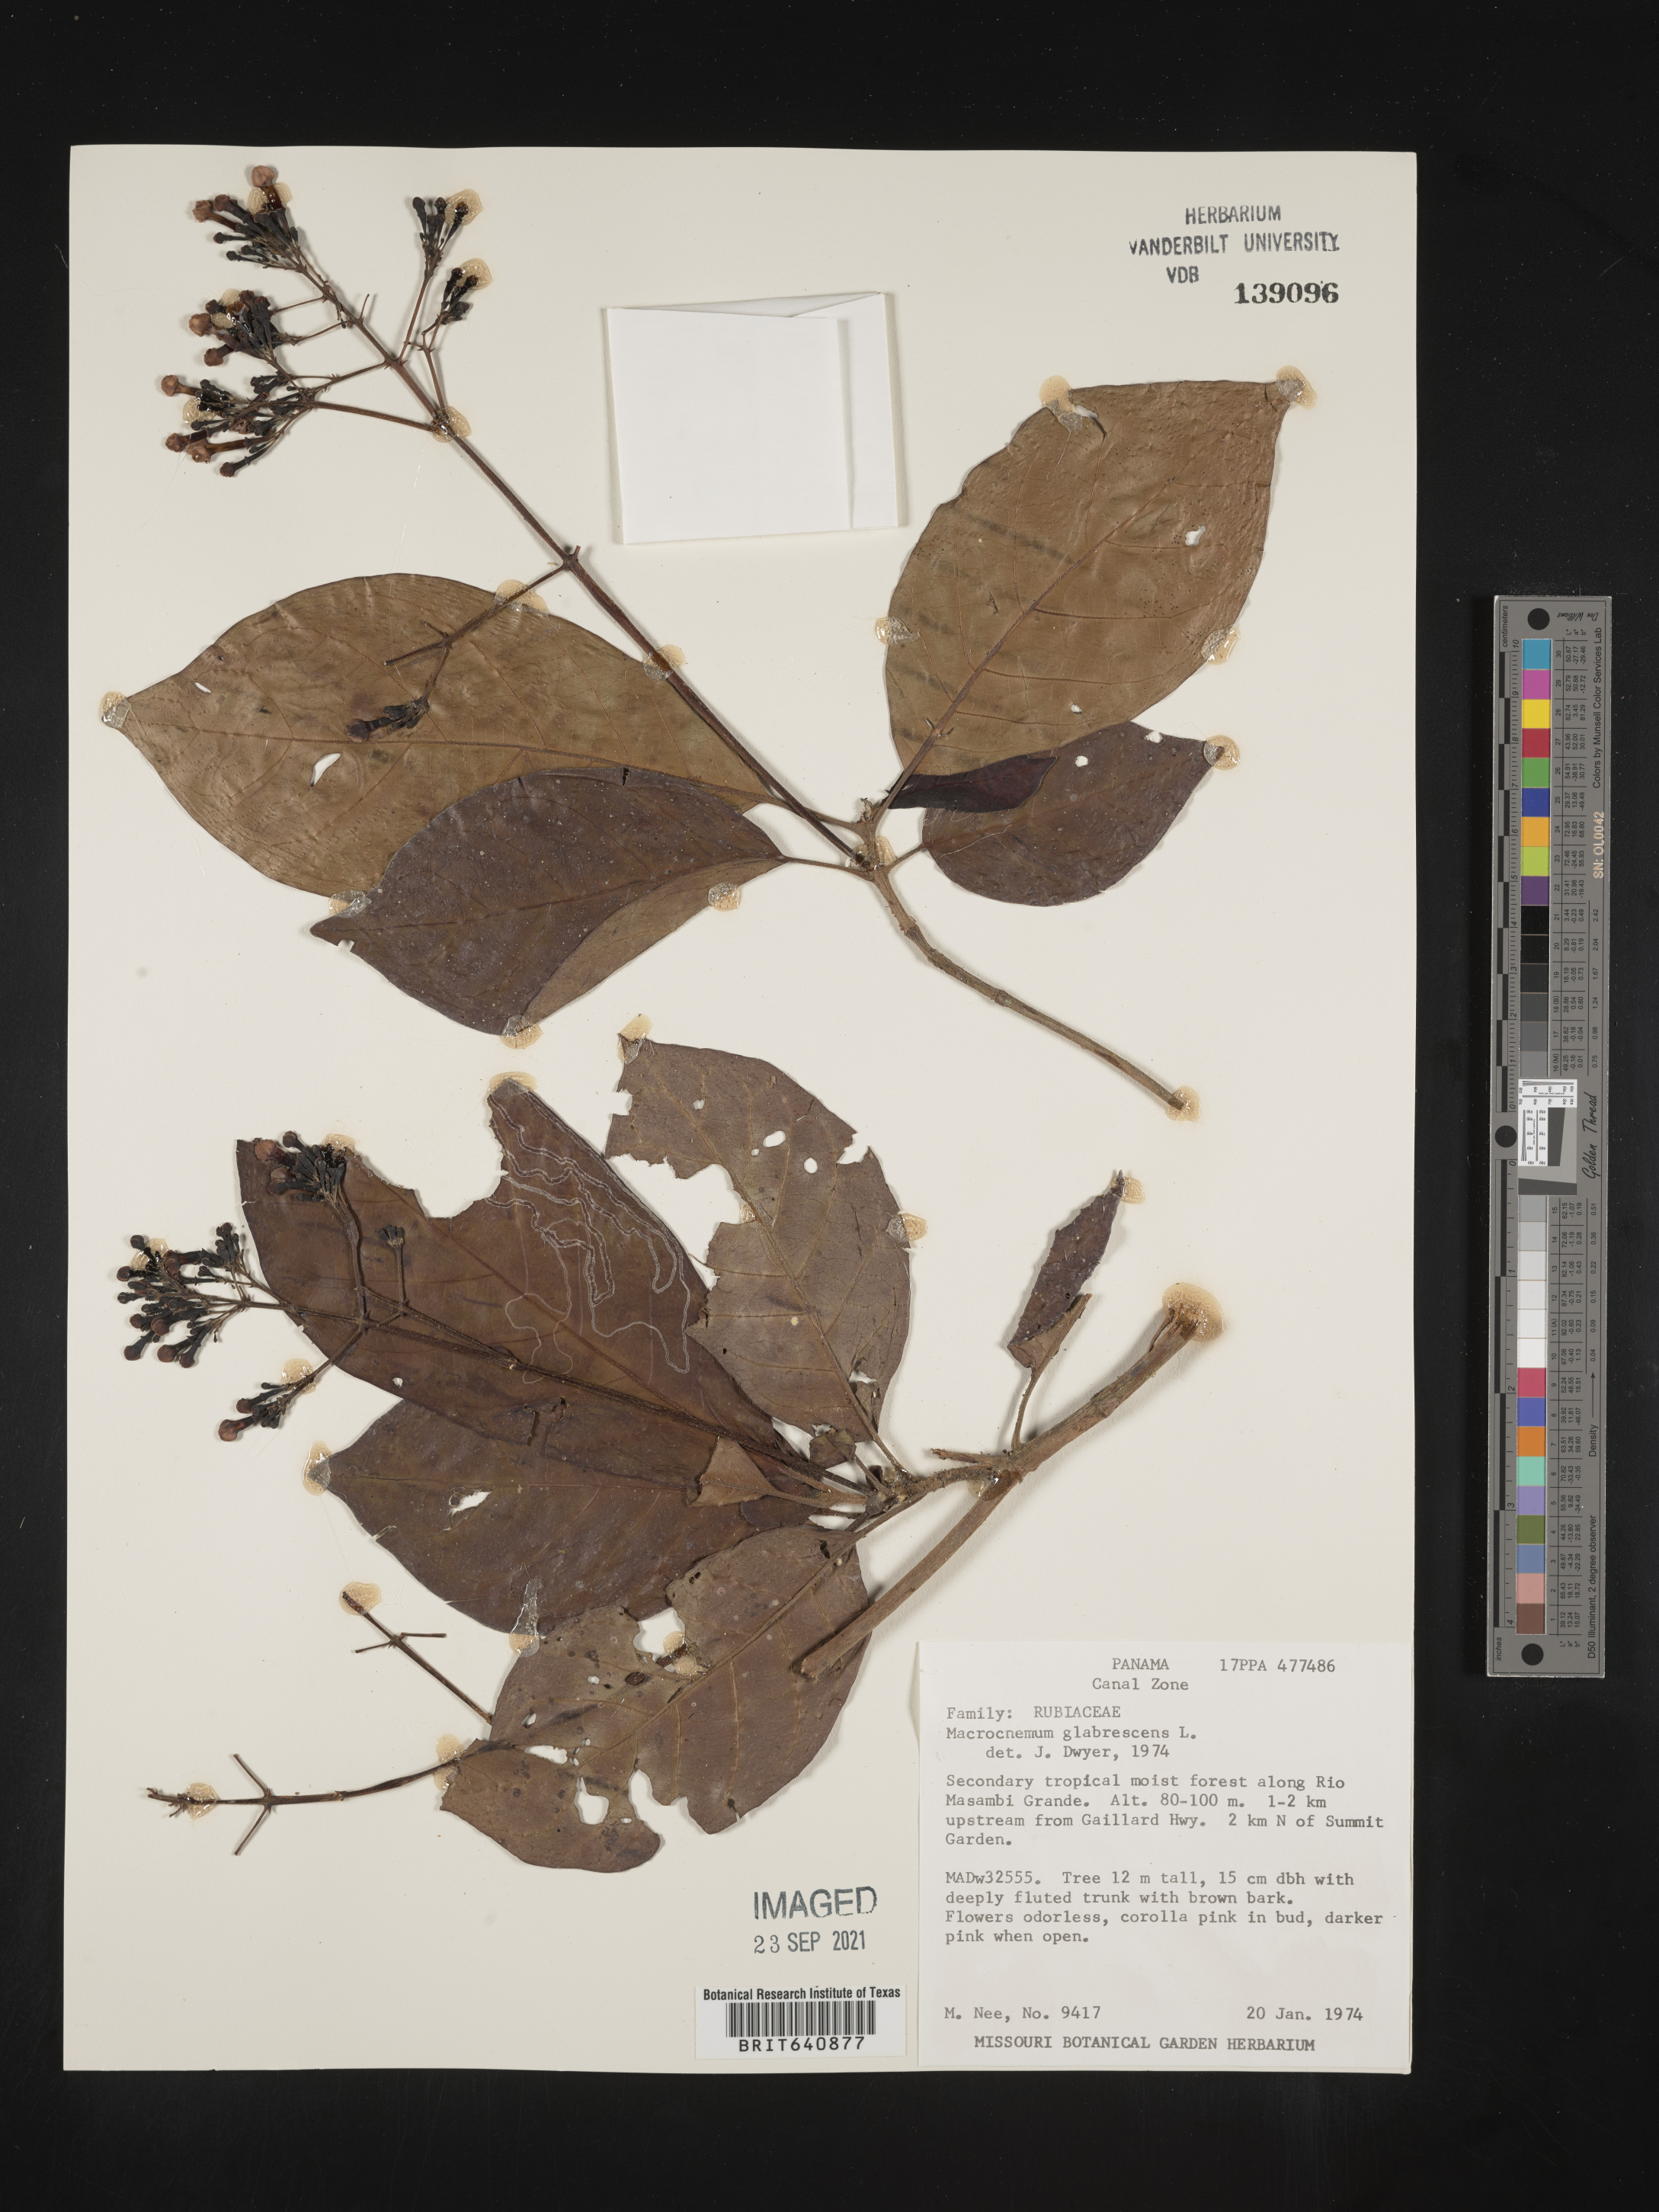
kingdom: Plantae
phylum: Tracheophyta
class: Magnoliopsida
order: Gentianales
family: Rubiaceae
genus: Macrocnemum
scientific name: Macrocnemum
